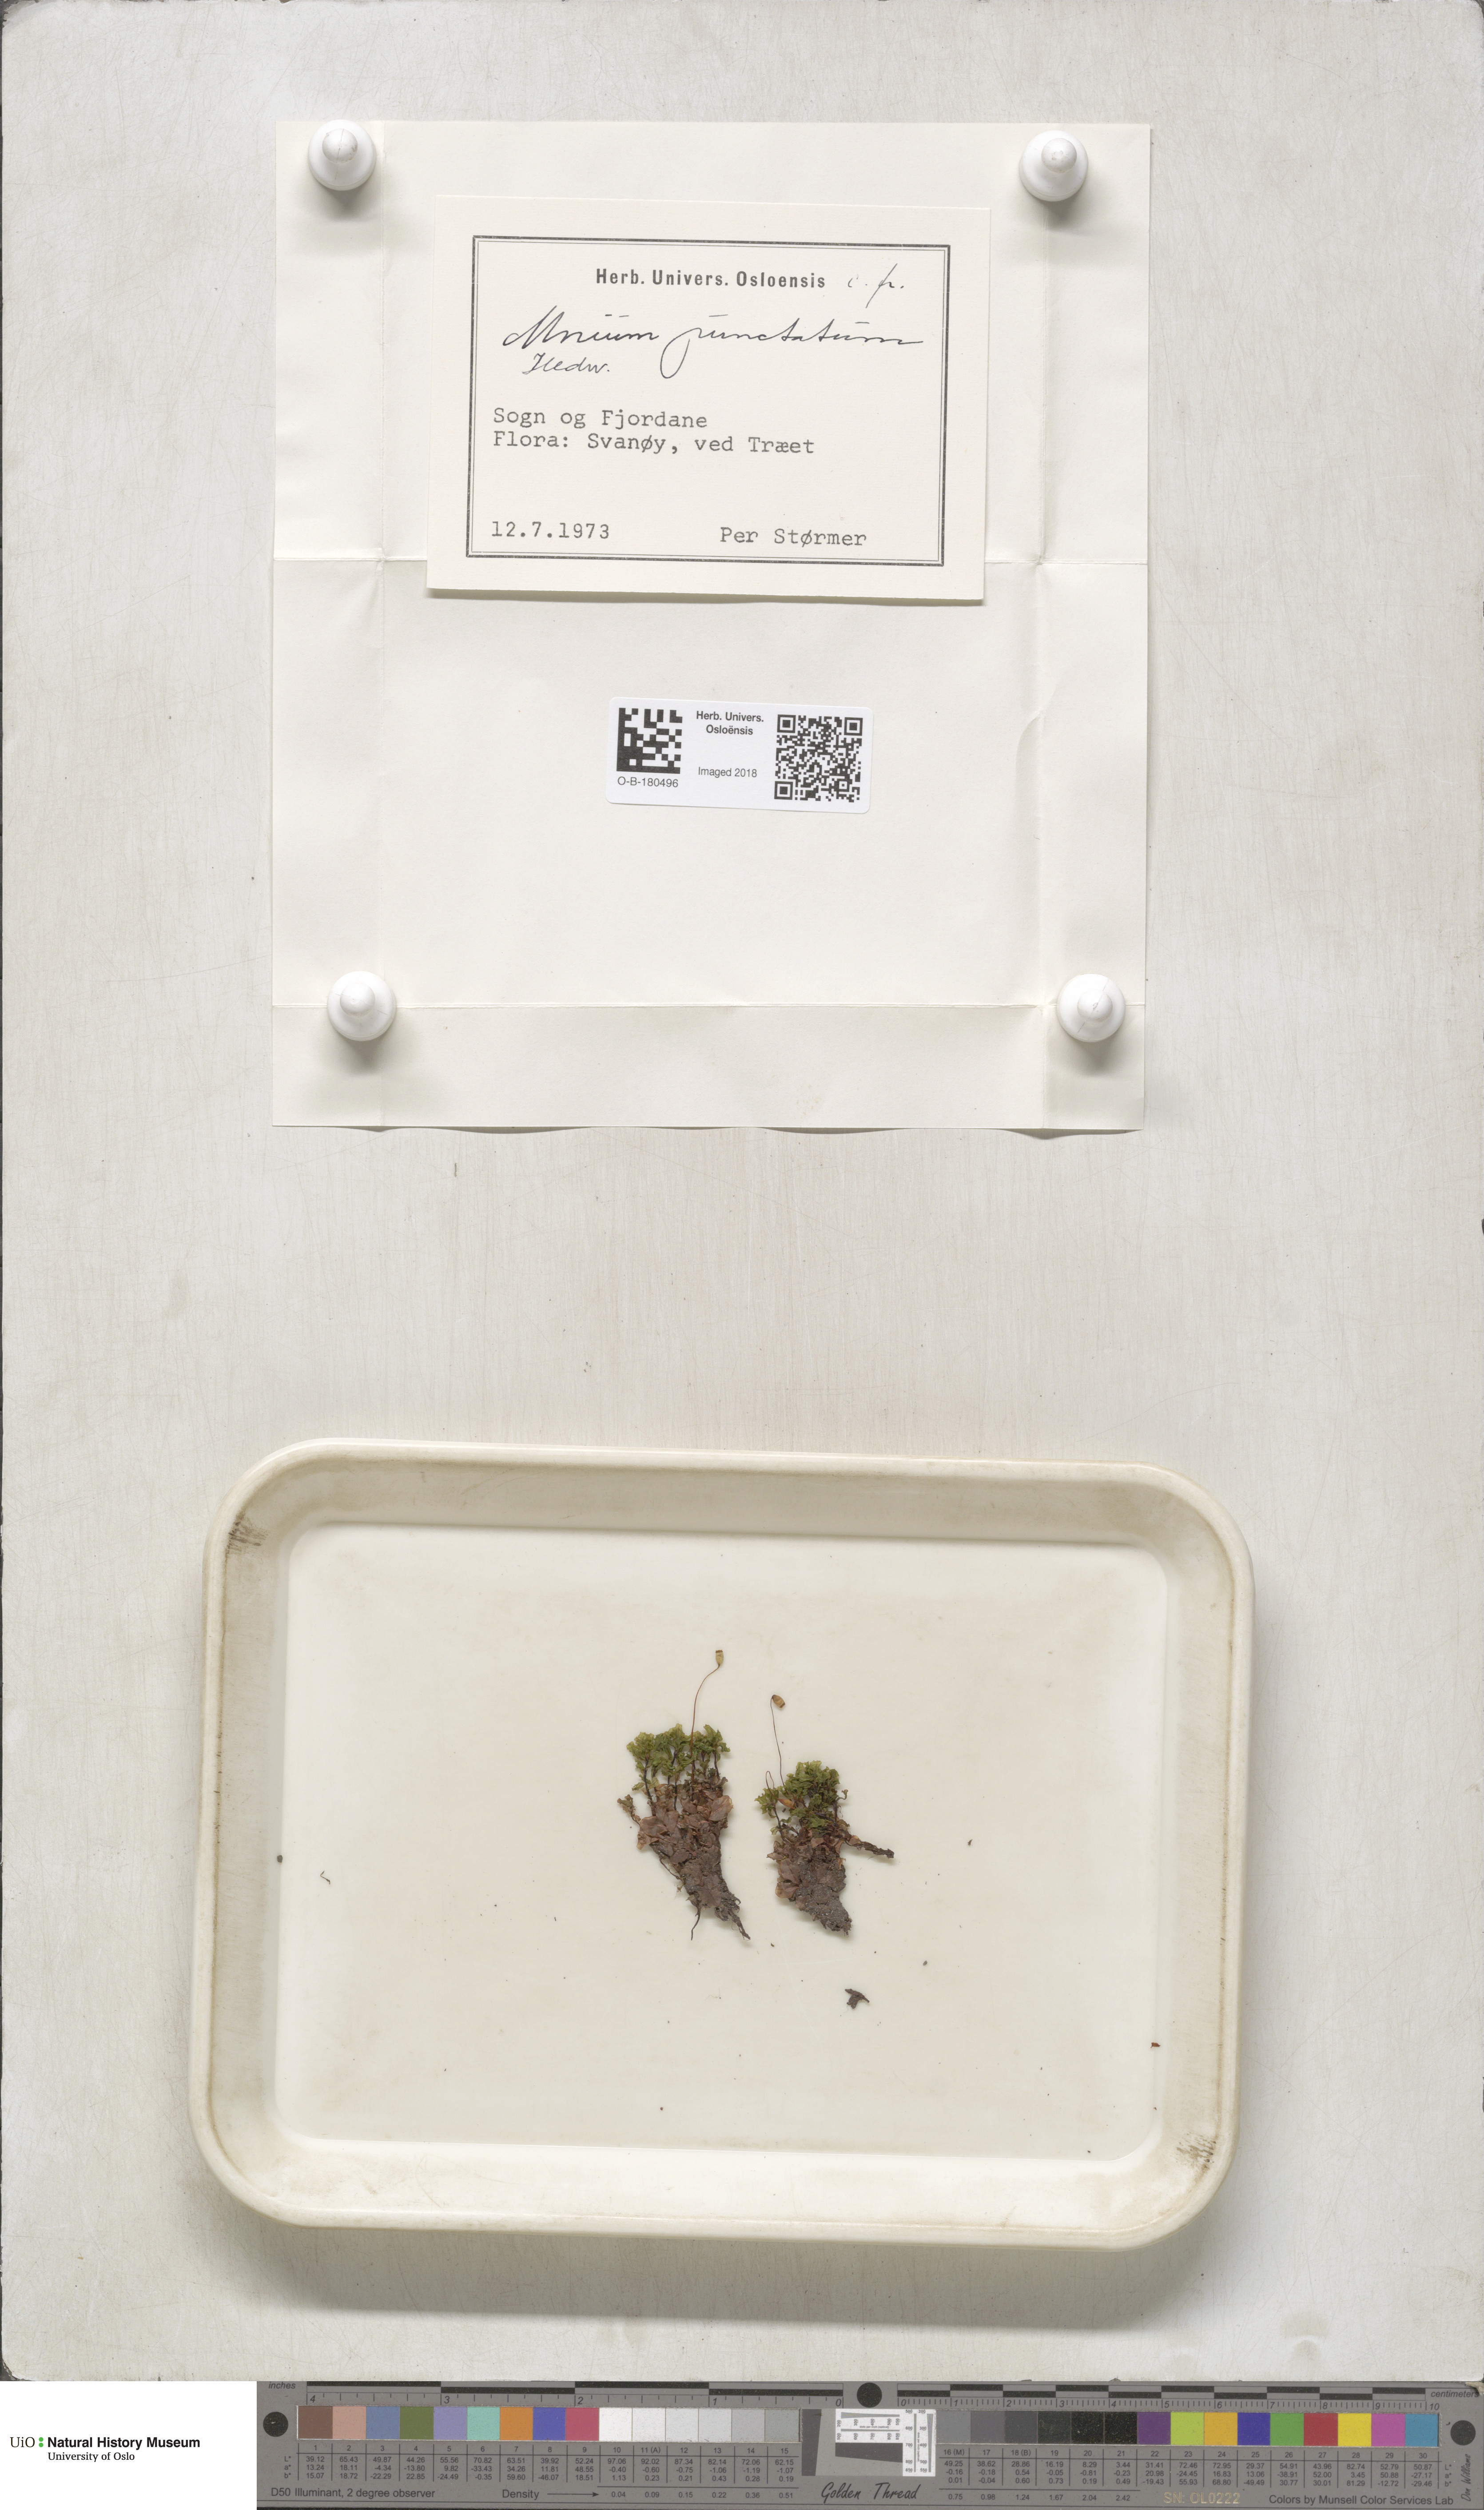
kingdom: Plantae
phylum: Bryophyta
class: Bryopsida
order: Bryales
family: Mniaceae
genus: Rhizomnium
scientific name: Rhizomnium punctatum
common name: Dotted leafy moss
